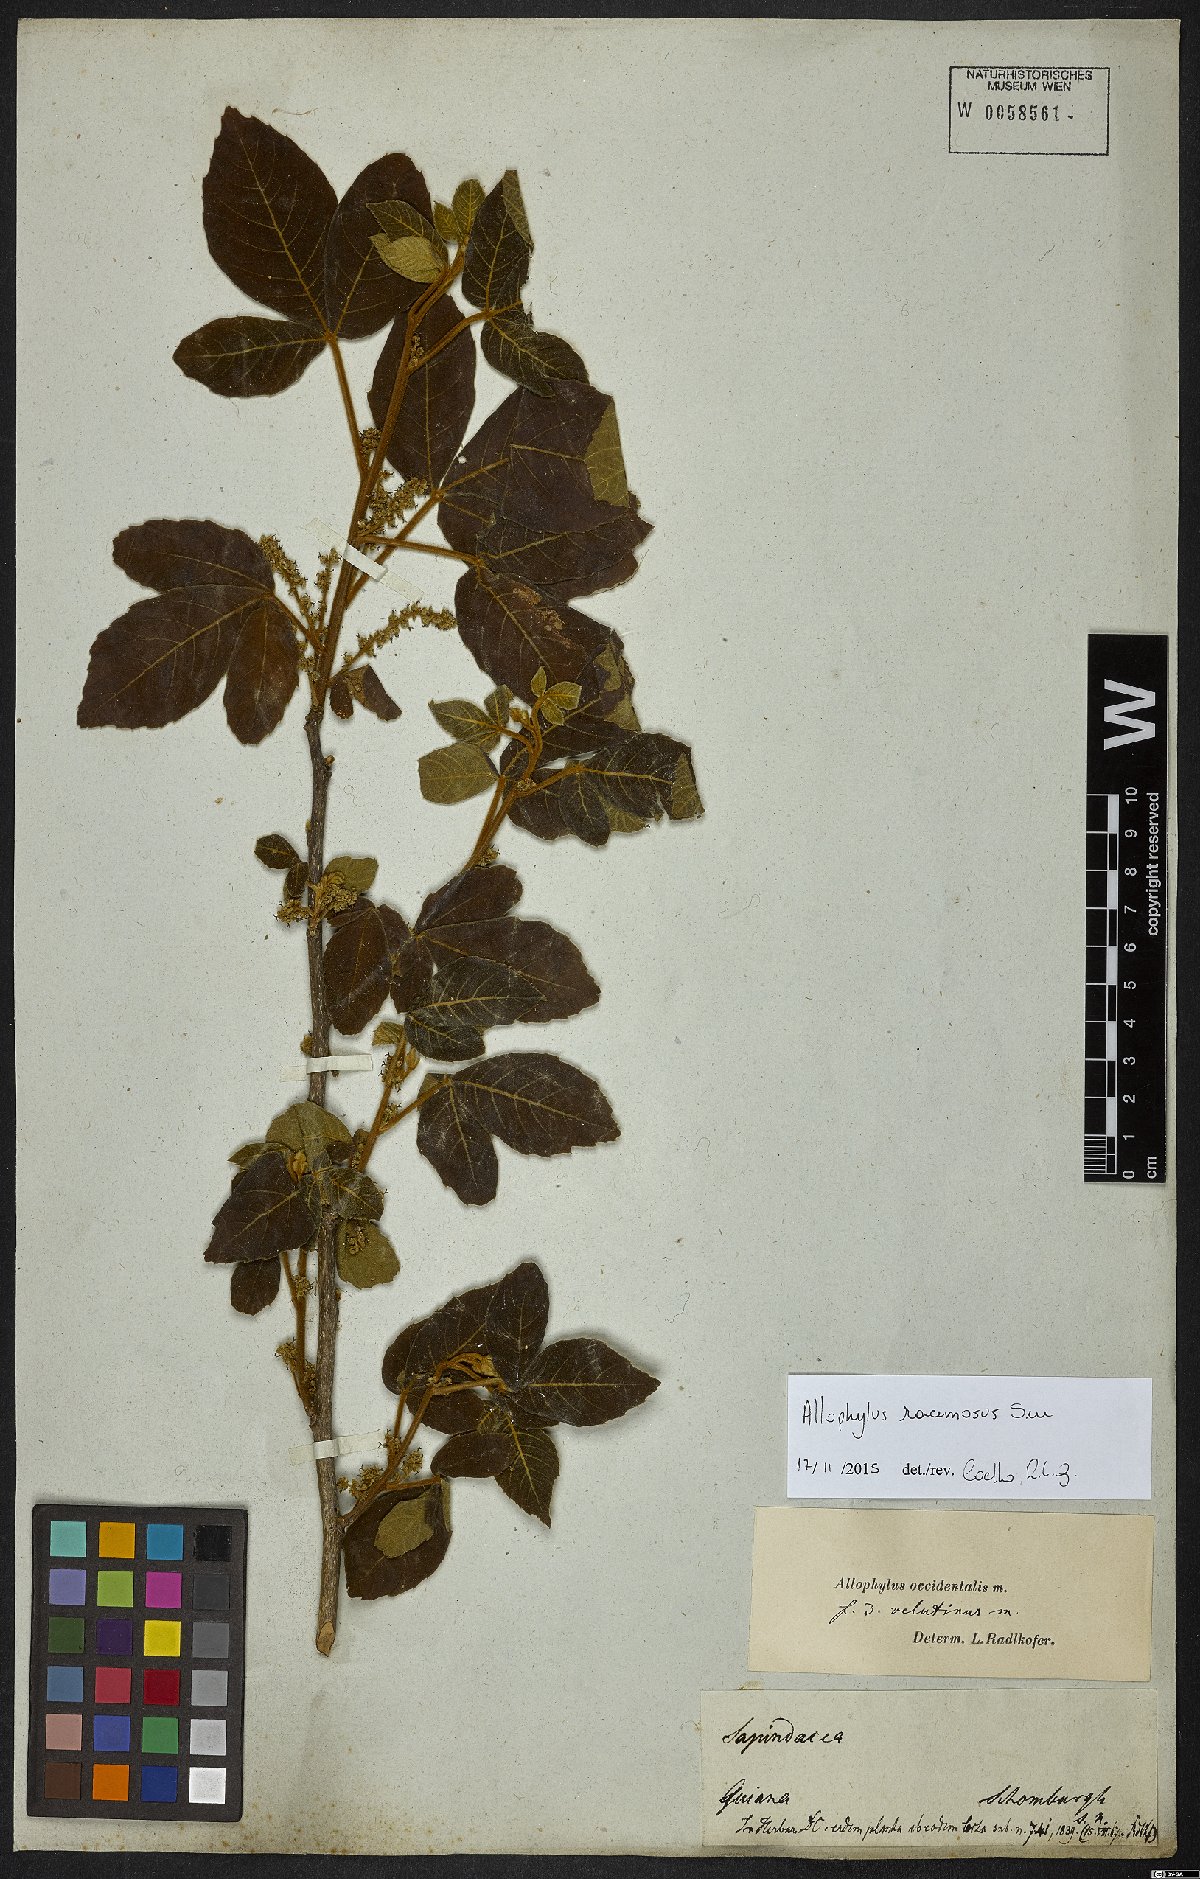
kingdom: Plantae
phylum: Tracheophyta
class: Magnoliopsida
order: Sapindales
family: Sapindaceae
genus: Allophylus
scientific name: Allophylus racemosus
